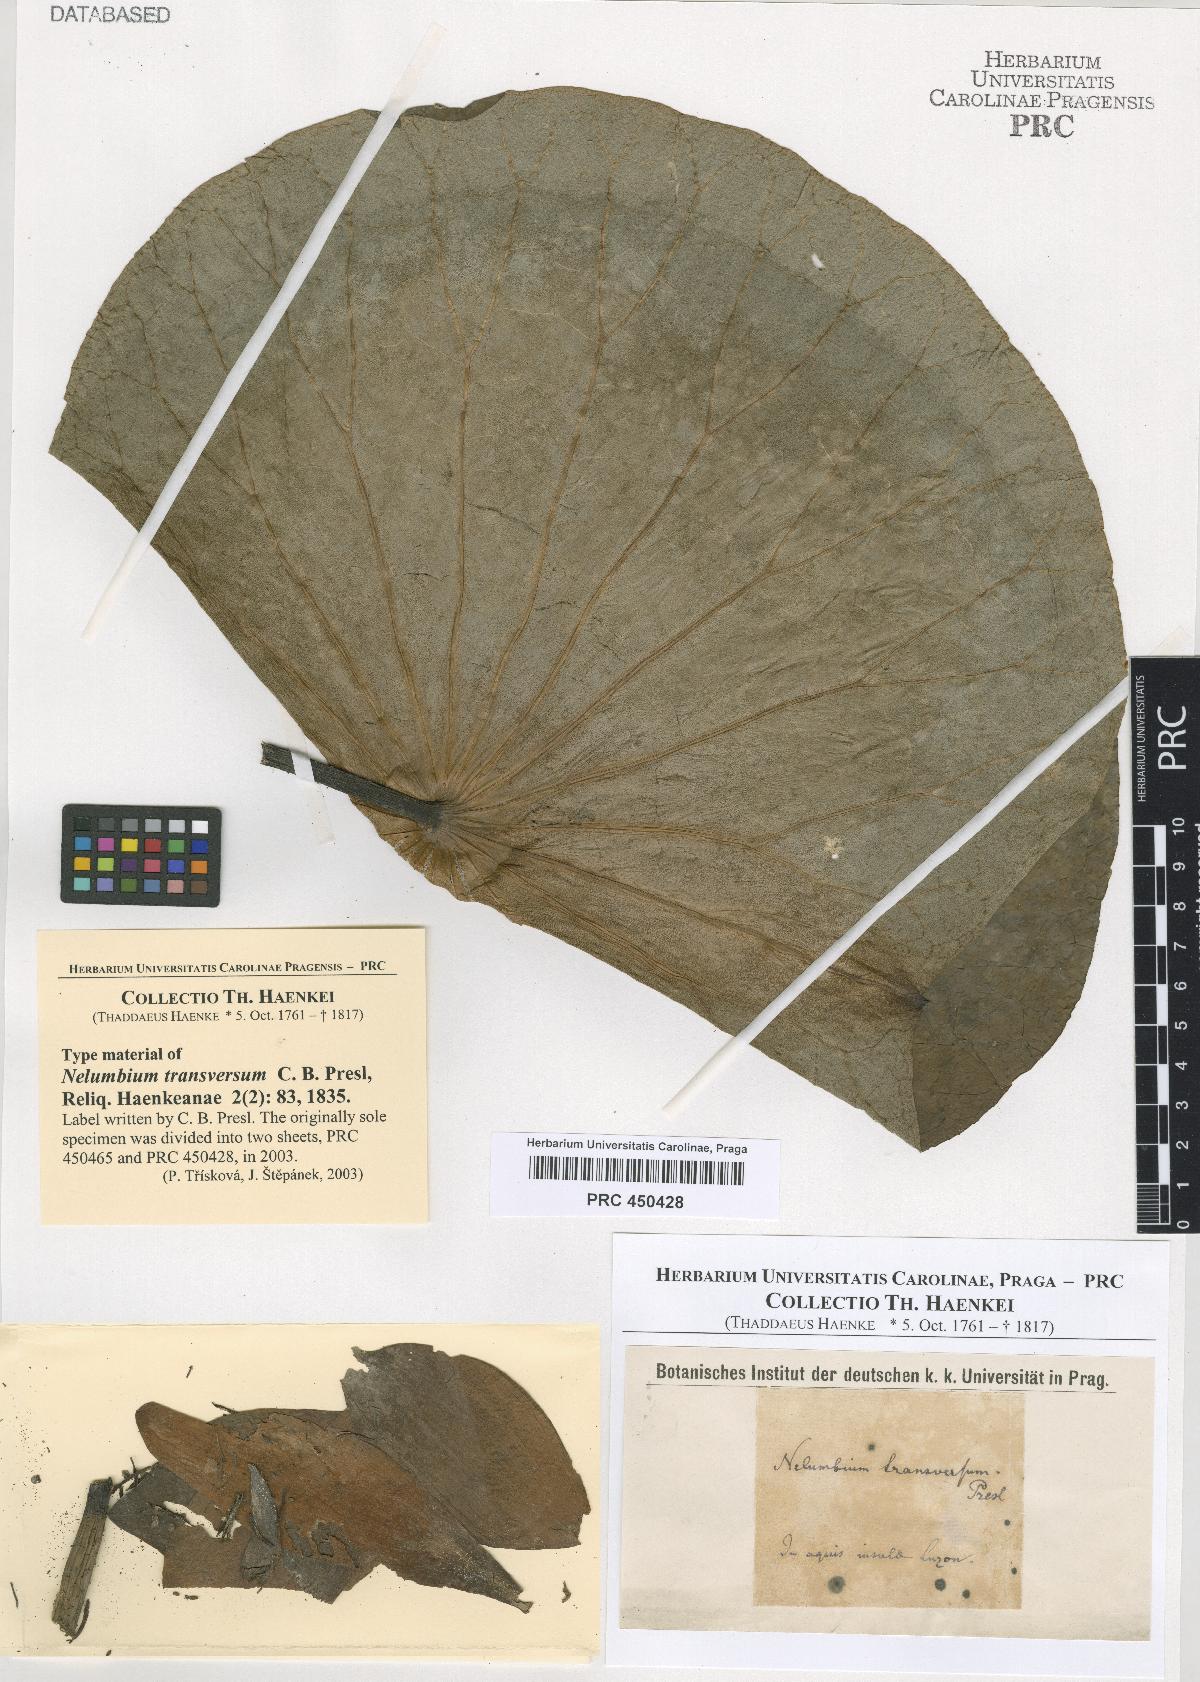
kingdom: Plantae
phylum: Tracheophyta
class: Magnoliopsida
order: Proteales
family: Nelumbonaceae
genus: Nelumbo
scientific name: Nelumbo transversa
